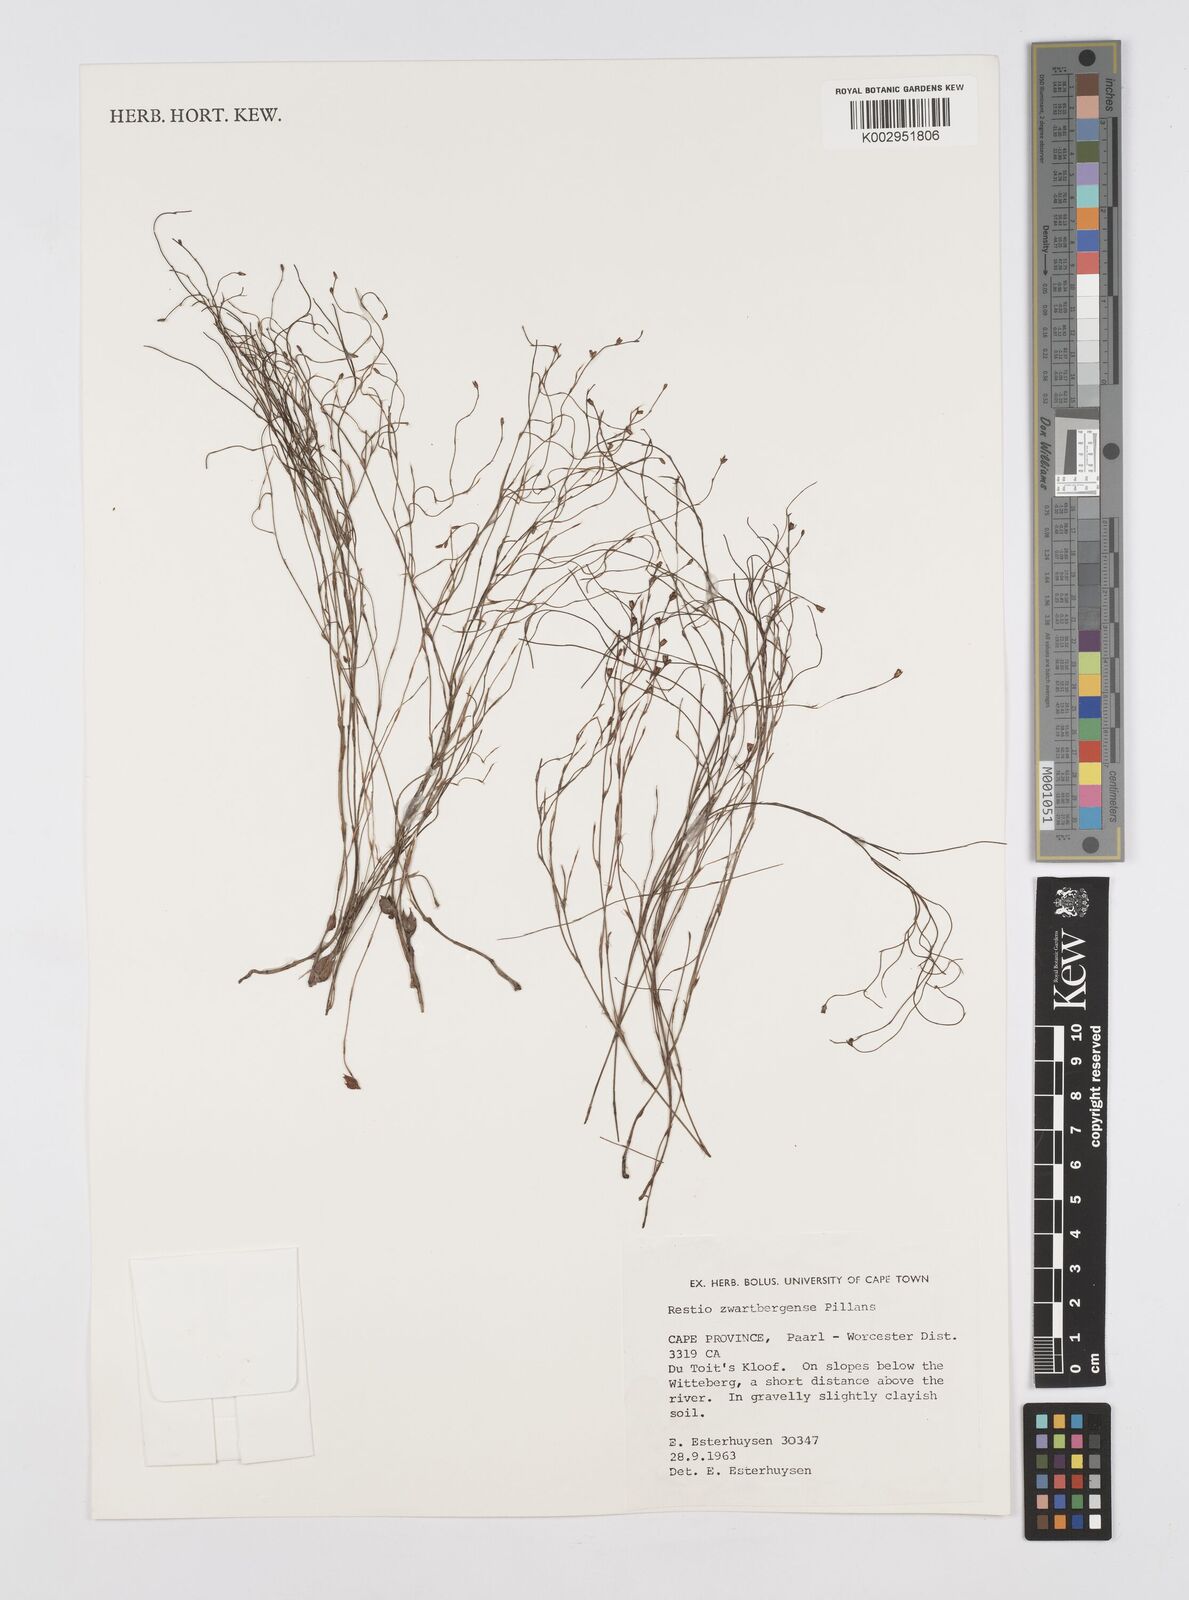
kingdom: Plantae
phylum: Tracheophyta
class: Liliopsida
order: Poales
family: Restionaceae
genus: Restio
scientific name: Restio zwartbergensis
